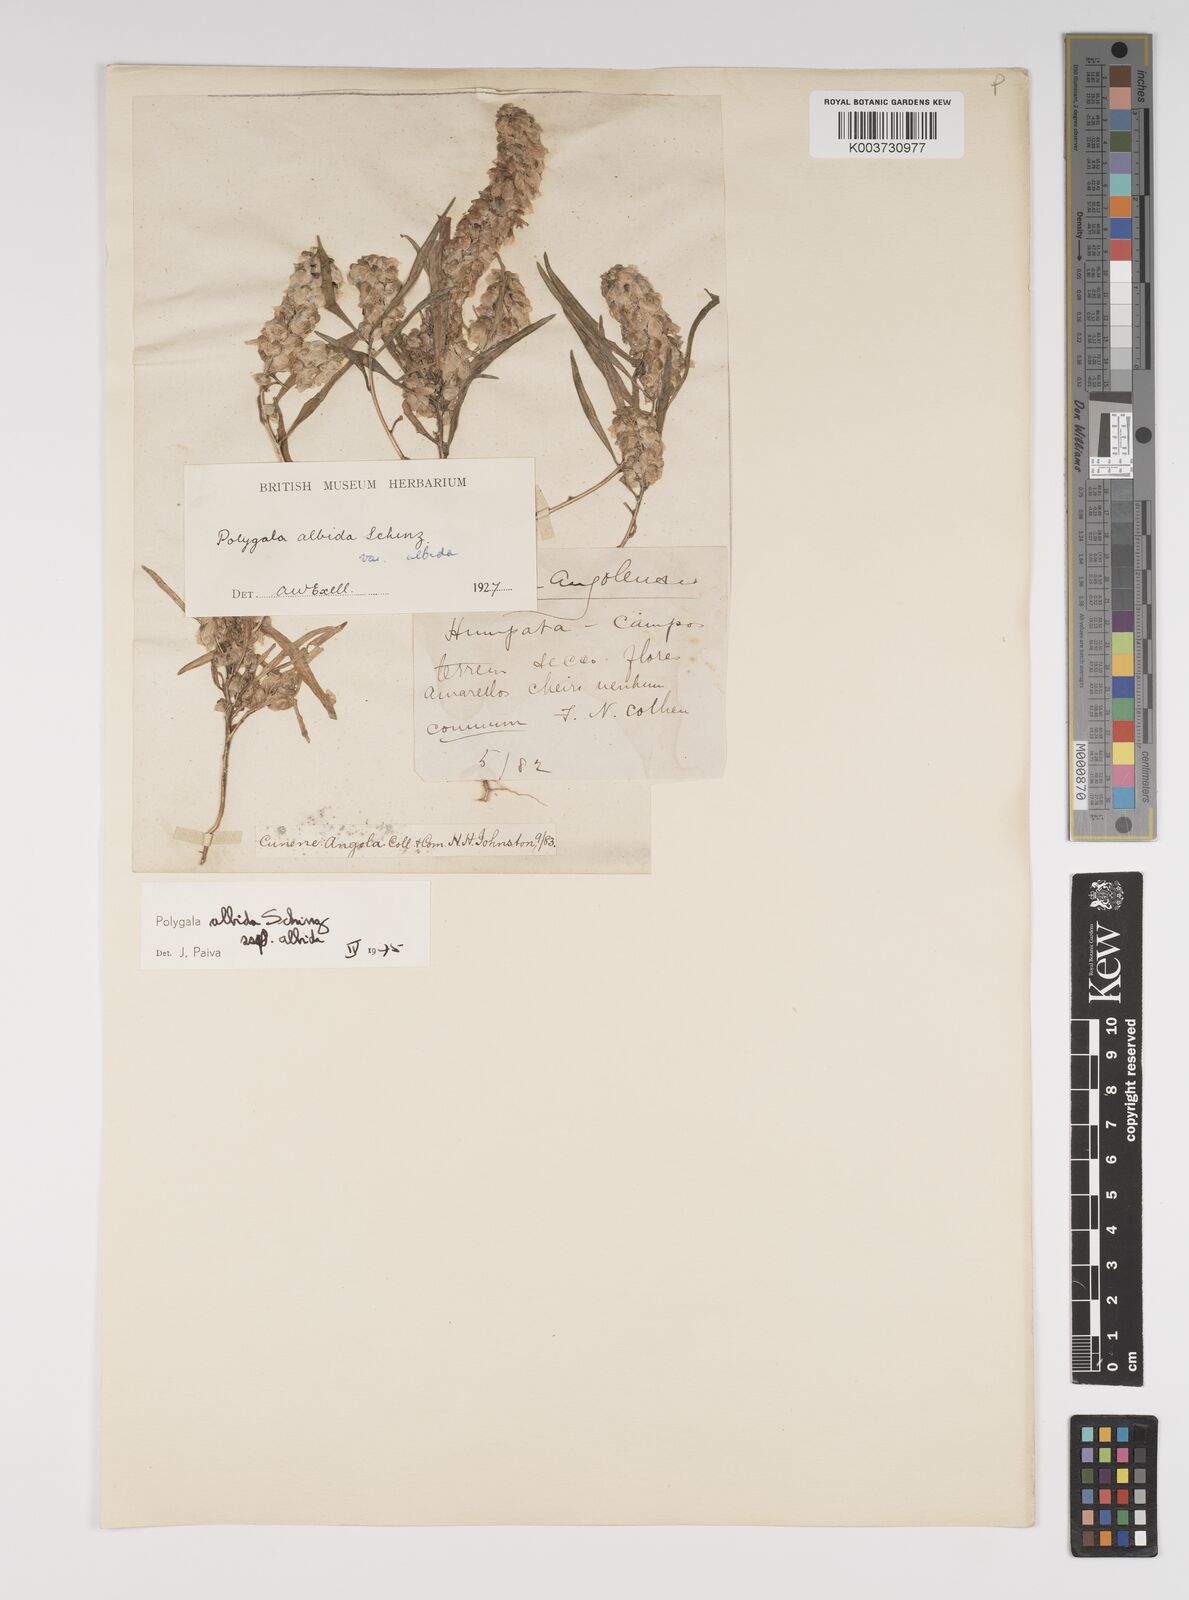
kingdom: Plantae
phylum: Tracheophyta
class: Magnoliopsida
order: Fabales
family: Polygalaceae
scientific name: Polygalaceae
